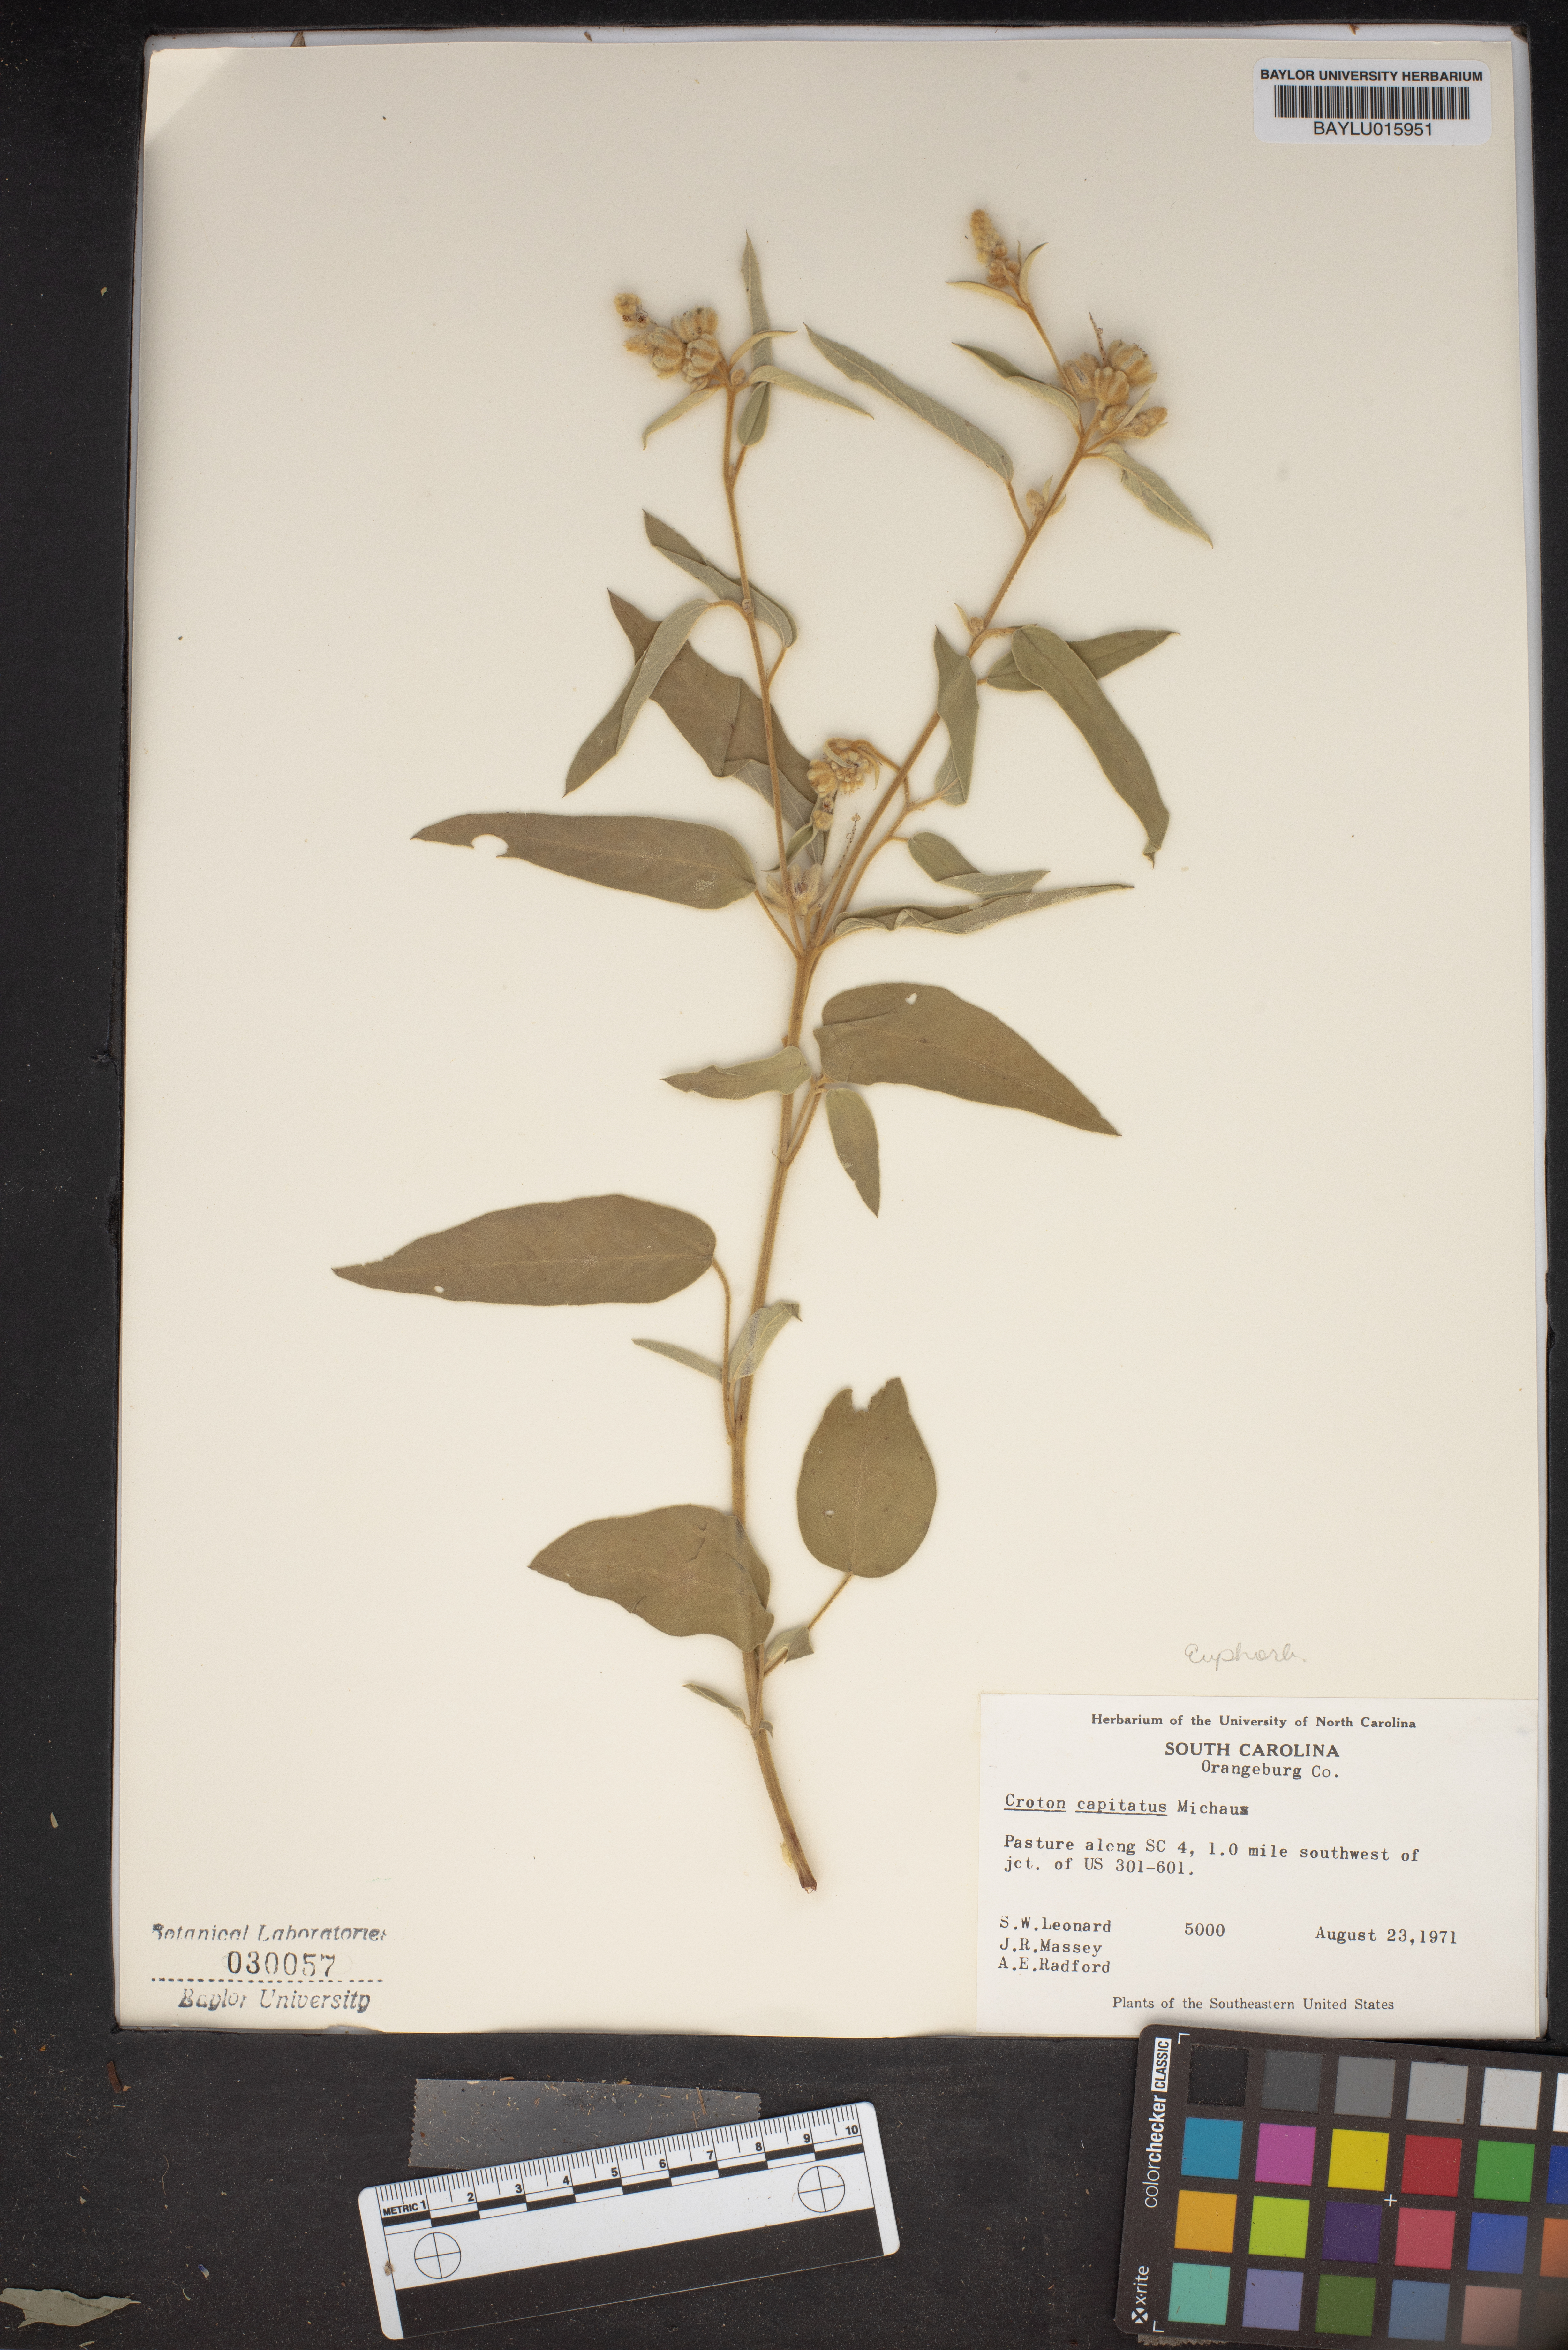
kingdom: Plantae
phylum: Tracheophyta
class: Magnoliopsida
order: Malpighiales
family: Euphorbiaceae
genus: Croton
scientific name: Croton capitatus
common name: Woolly croton
